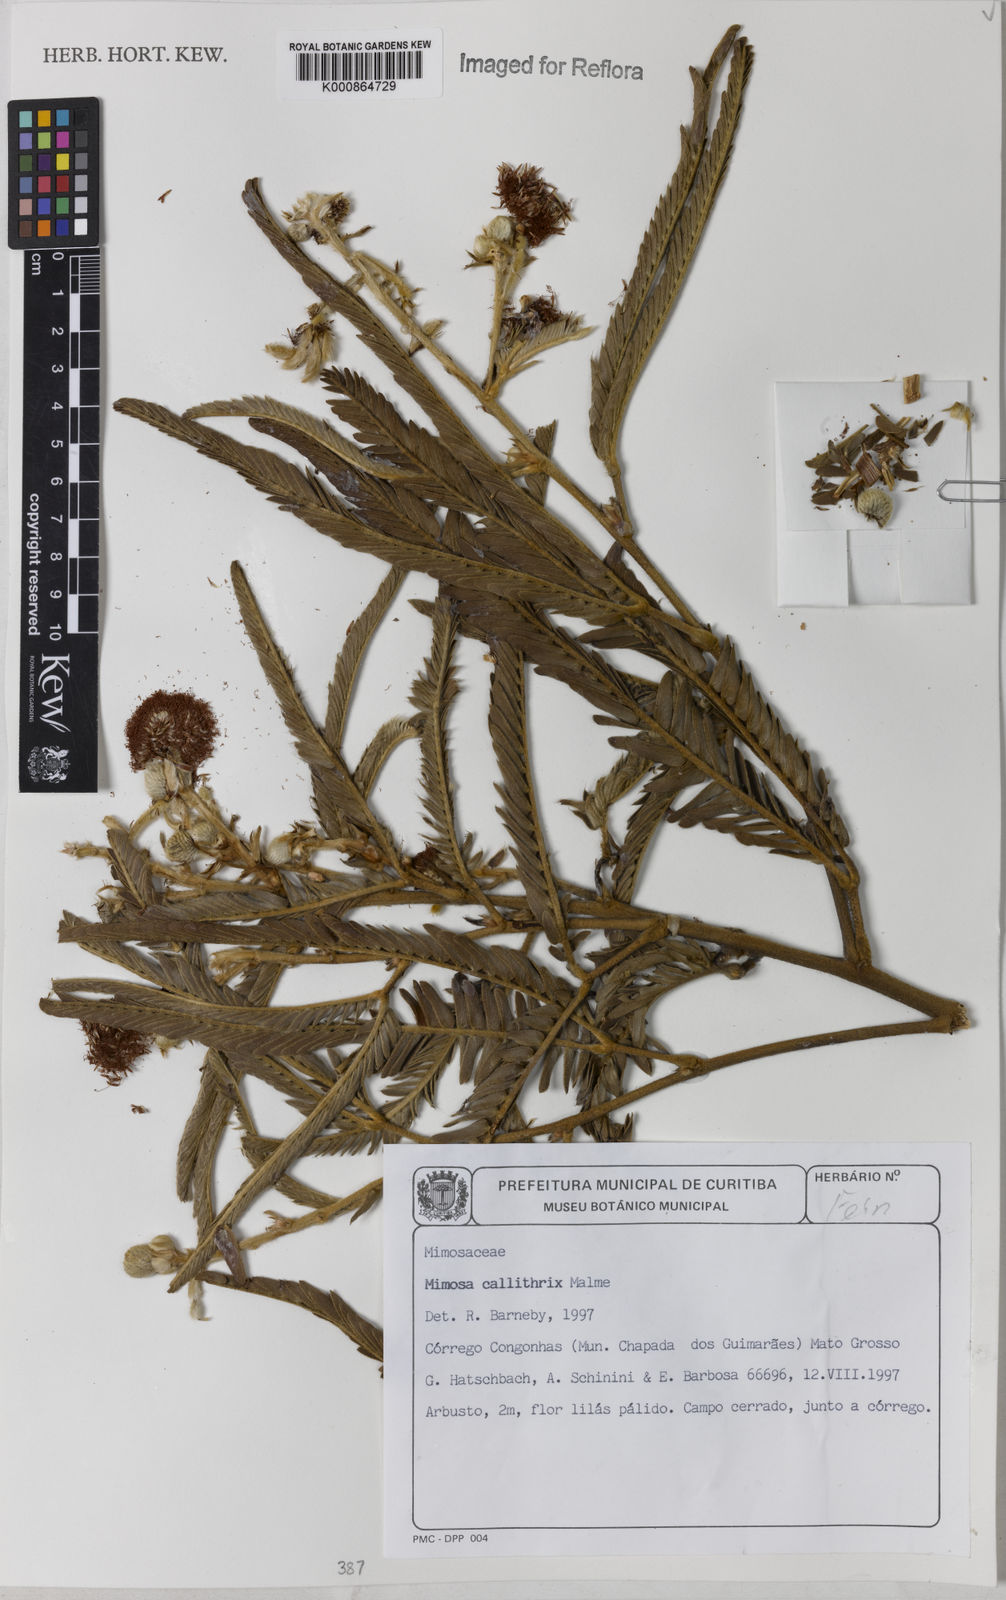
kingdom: Plantae
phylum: Tracheophyta
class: Magnoliopsida
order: Fabales
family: Fabaceae
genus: Mimosa
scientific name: Mimosa callithrix
